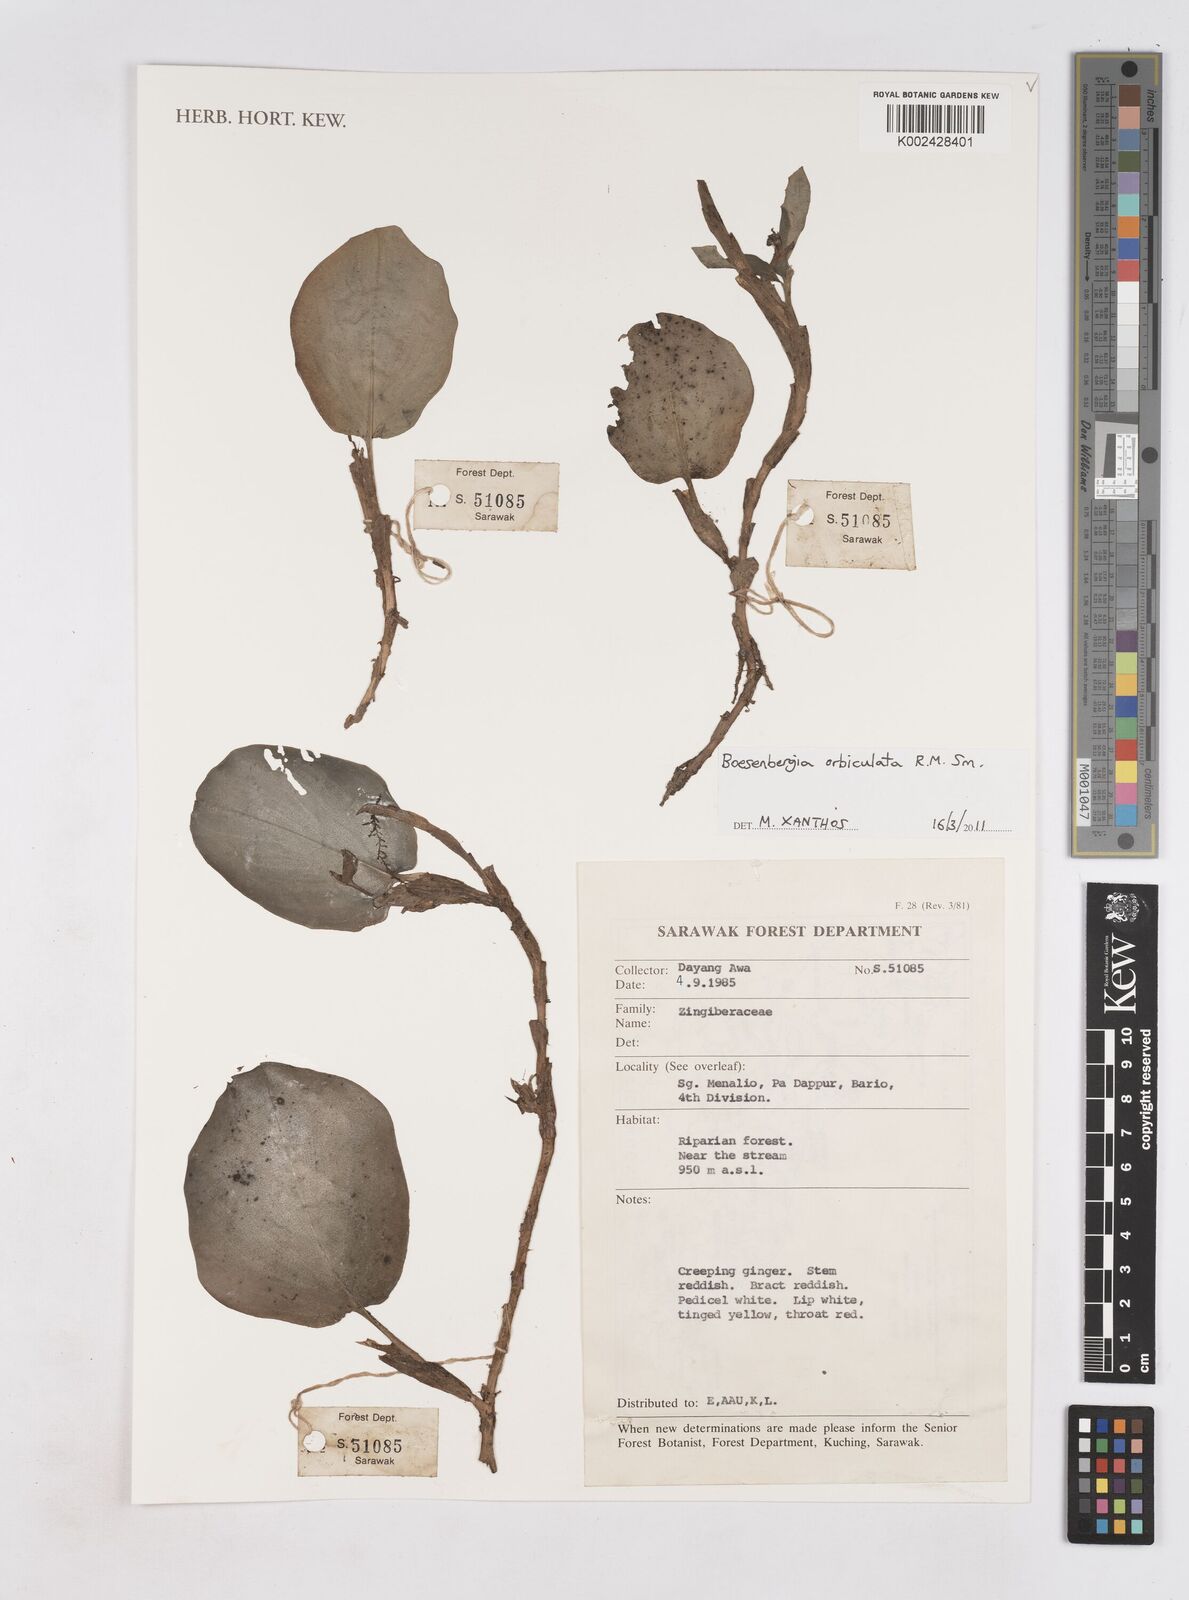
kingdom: Plantae
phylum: Tracheophyta
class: Liliopsida
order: Zingiberales
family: Zingiberaceae
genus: Boesenbergia
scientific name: Boesenbergia orbiculata
